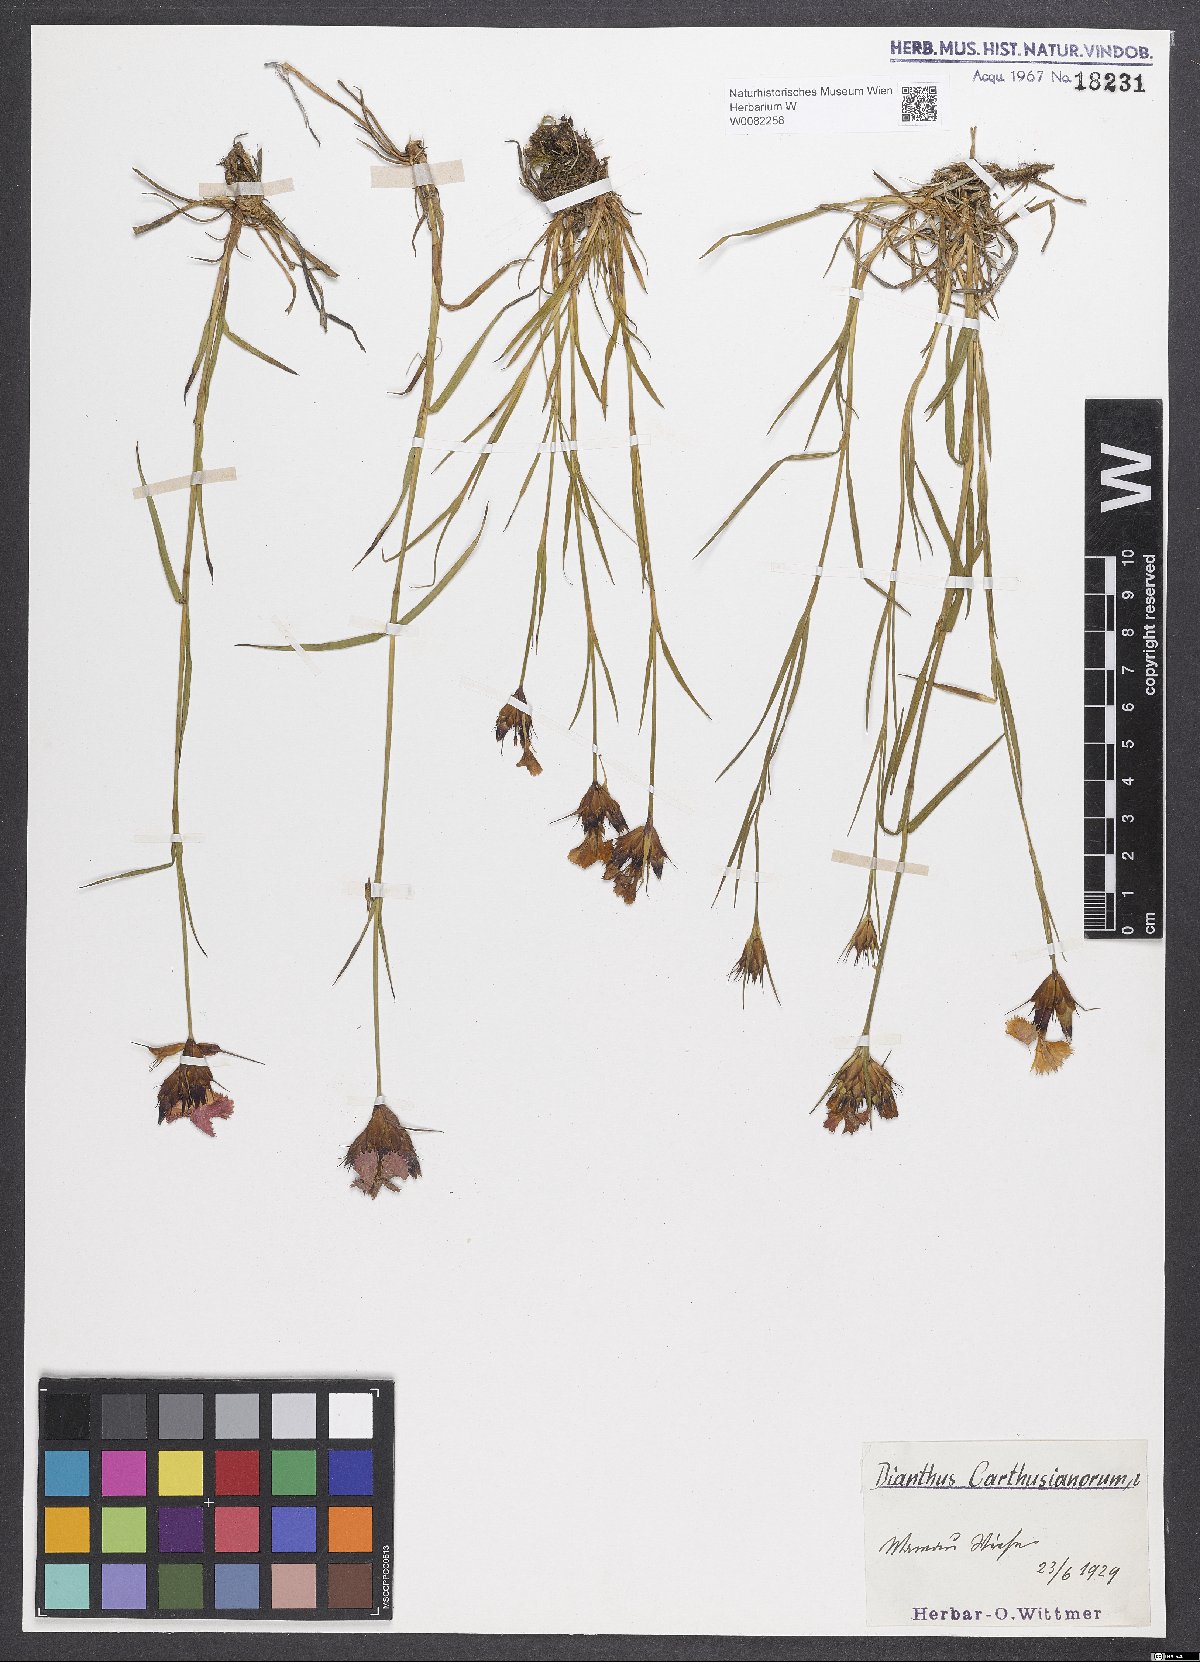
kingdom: Plantae
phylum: Tracheophyta
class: Magnoliopsida
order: Caryophyllales
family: Caryophyllaceae
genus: Dianthus
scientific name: Dianthus carthusianorum
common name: Carthusian pink
